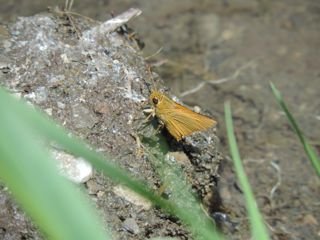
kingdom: Animalia
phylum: Arthropoda
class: Insecta
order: Lepidoptera
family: Hesperiidae
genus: Atrytone
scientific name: Atrytone delaware
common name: Delaware Skipper
